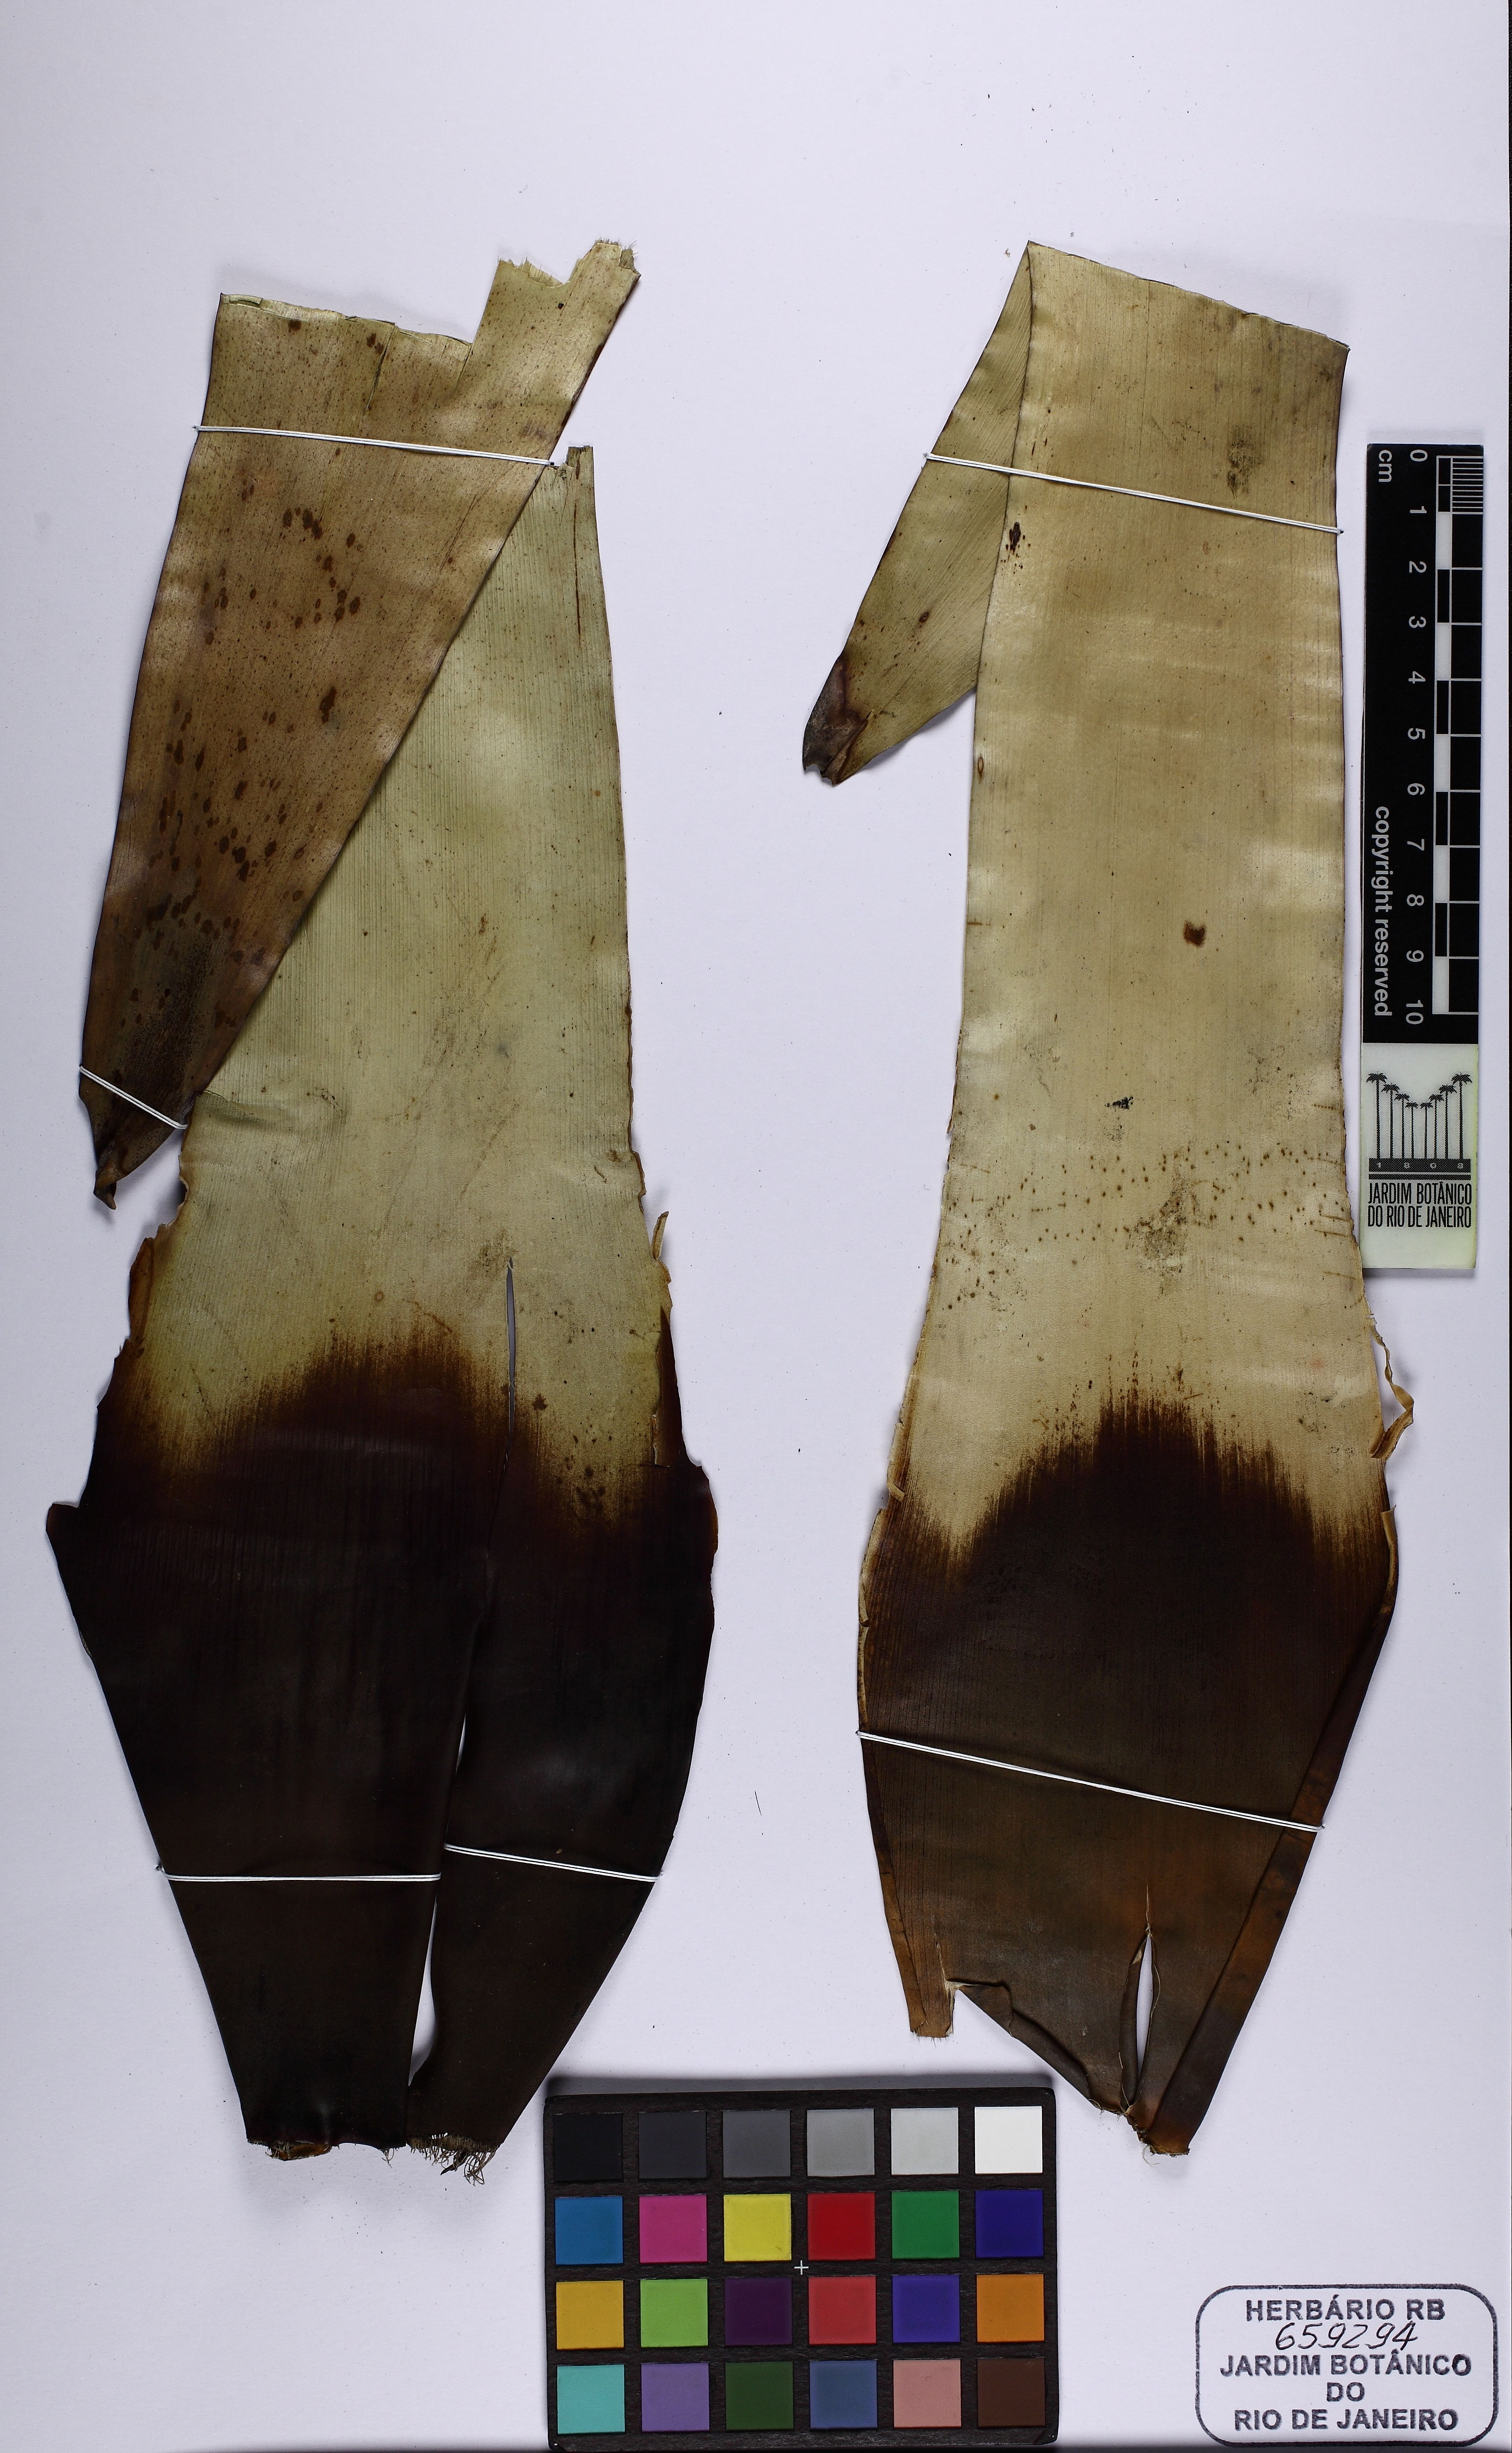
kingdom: Plantae
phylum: Tracheophyta
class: Liliopsida
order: Poales
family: Bromeliaceae
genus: Vriesea
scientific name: Vriesea
